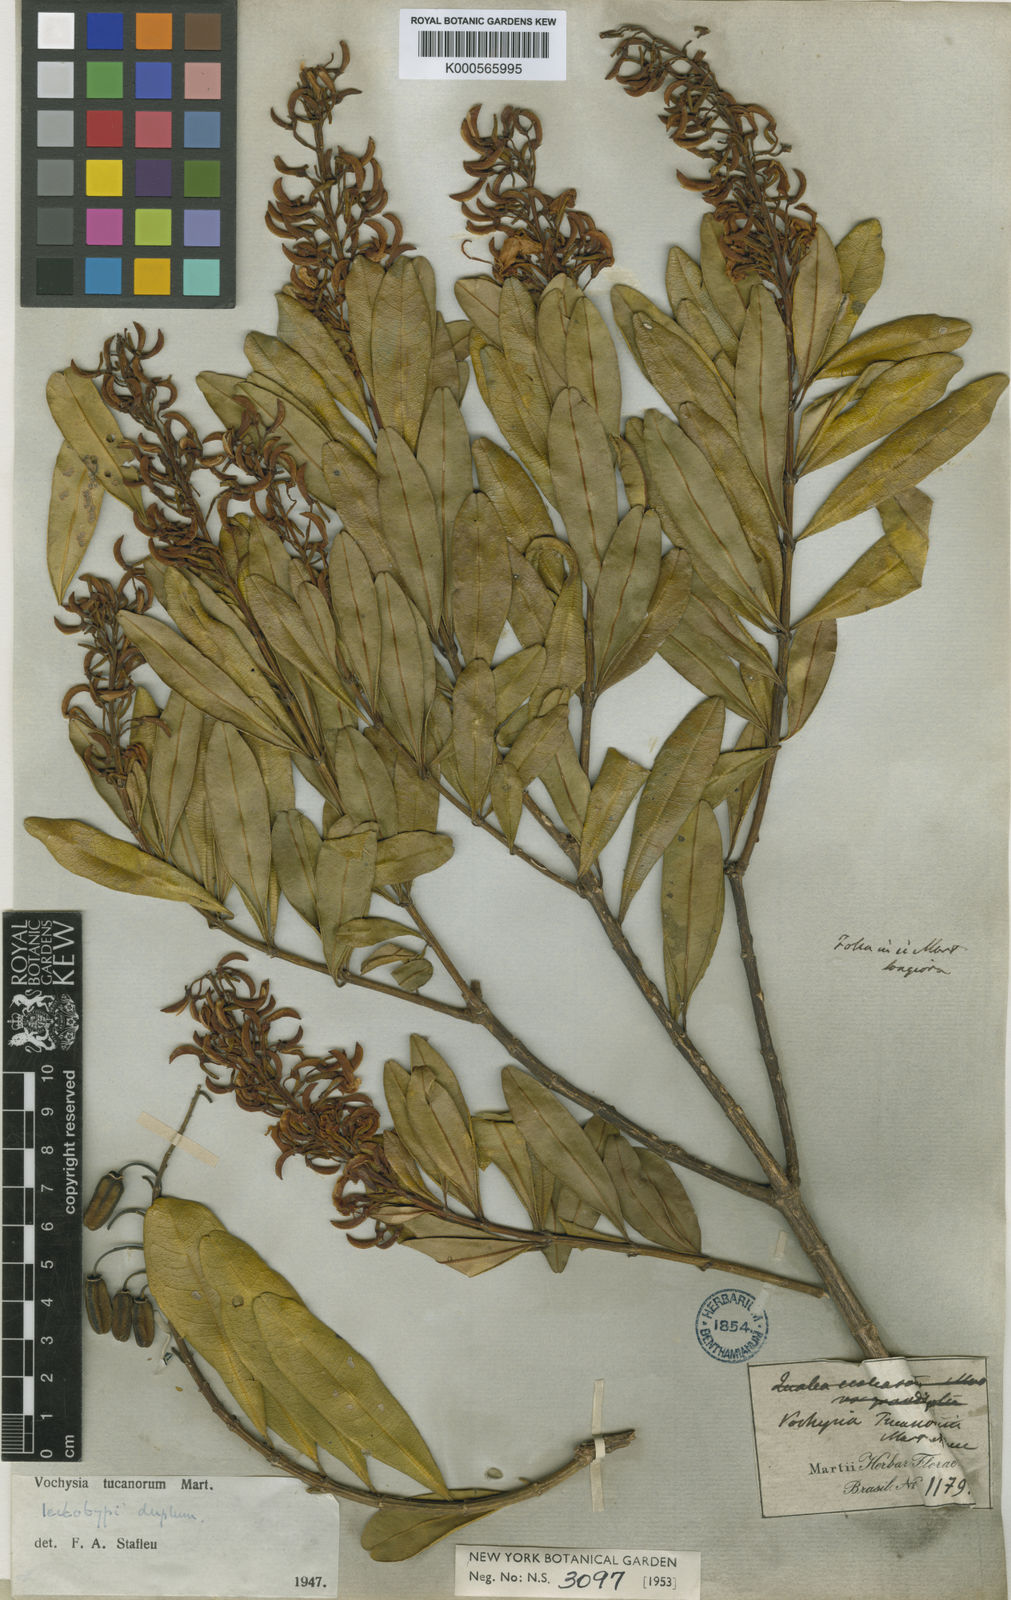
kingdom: Plantae
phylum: Tracheophyta
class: Magnoliopsida
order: Myrtales
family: Vochysiaceae
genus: Vochysia
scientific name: Vochysia tucanorum
